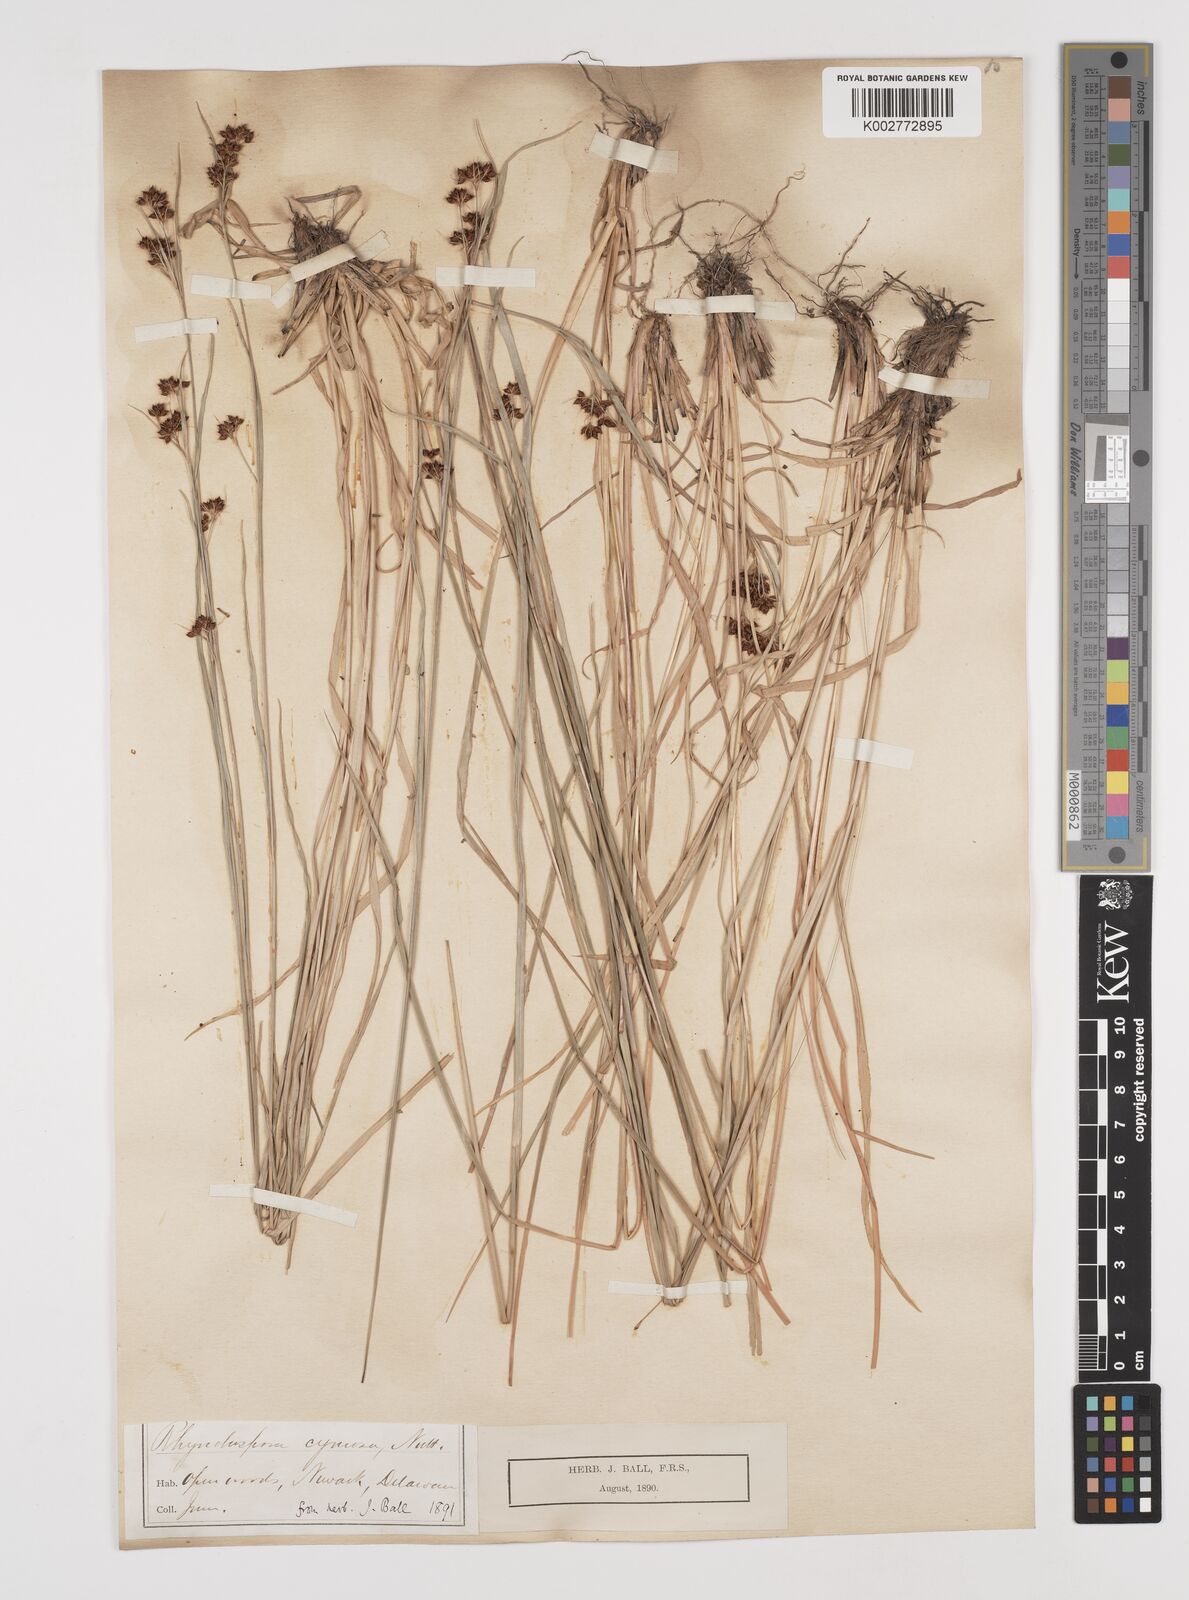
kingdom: Plantae
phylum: Tracheophyta
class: Liliopsida
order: Poales
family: Cyperaceae
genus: Scirpus
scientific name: Scirpus polyphyllus
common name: Leafy bulrush
